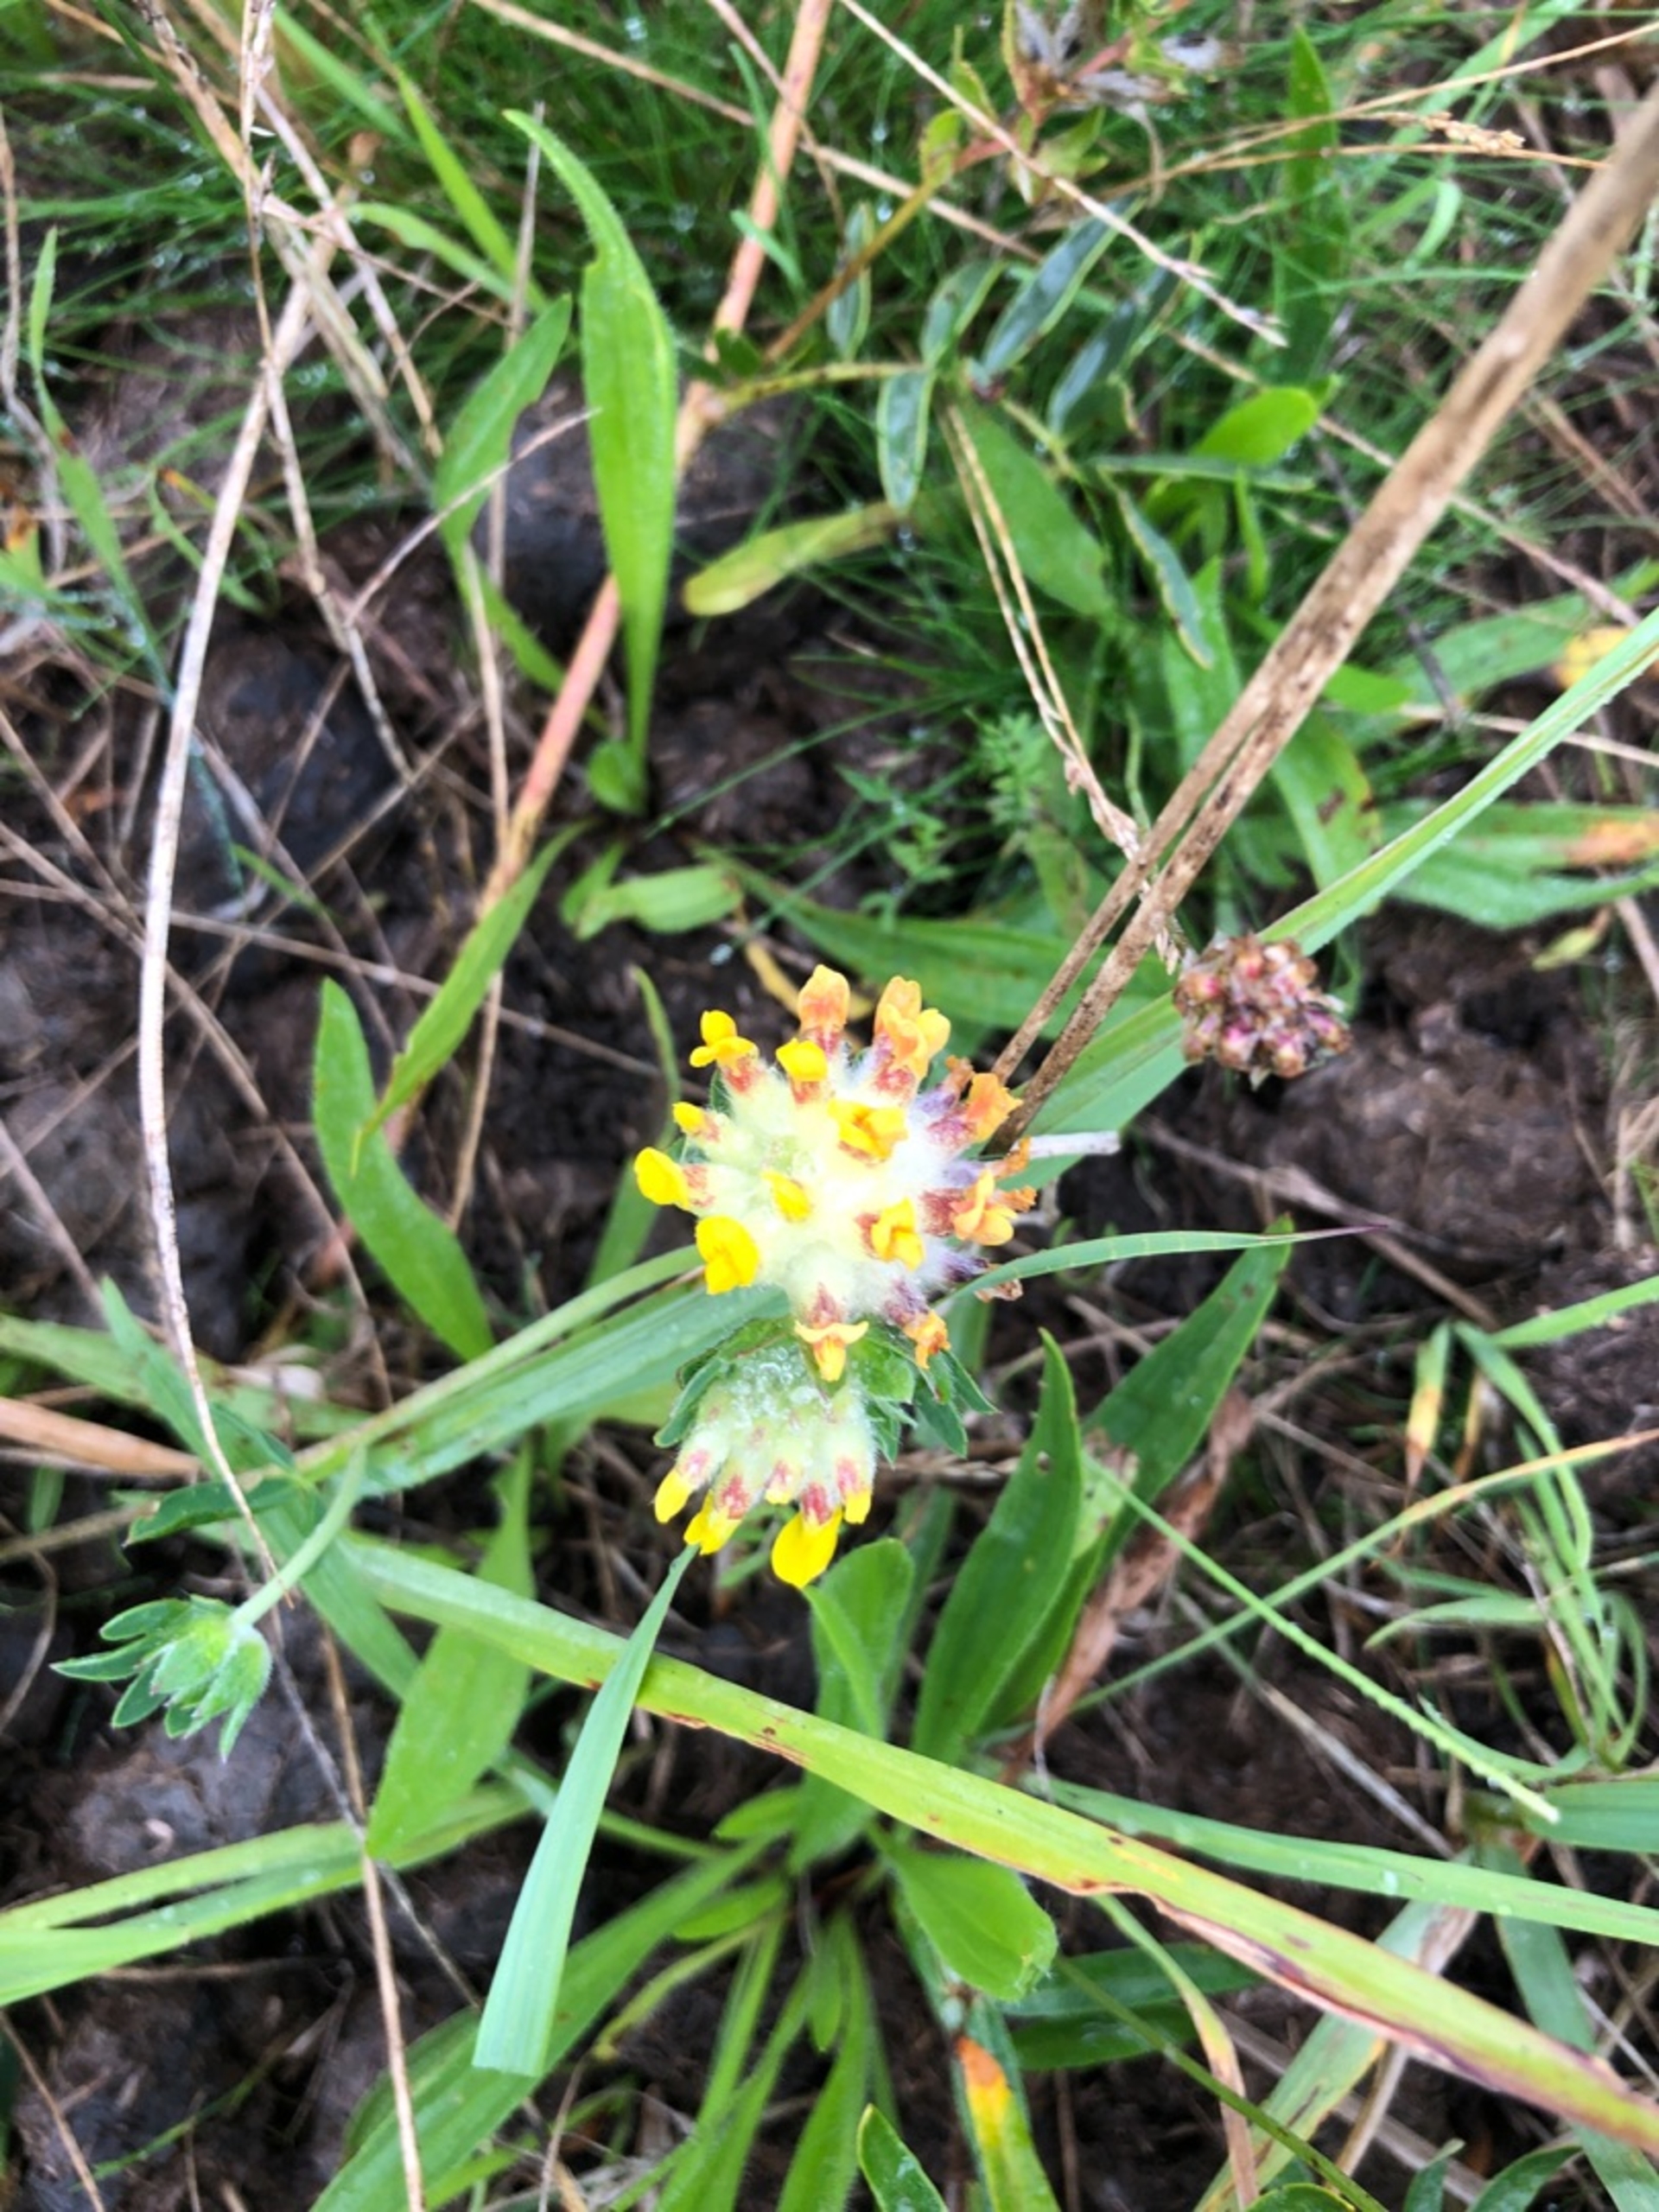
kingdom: Plantae
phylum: Tracheophyta
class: Magnoliopsida
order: Fabales
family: Fabaceae
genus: Anthyllis
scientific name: Anthyllis vulneraria
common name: Rundbælg
